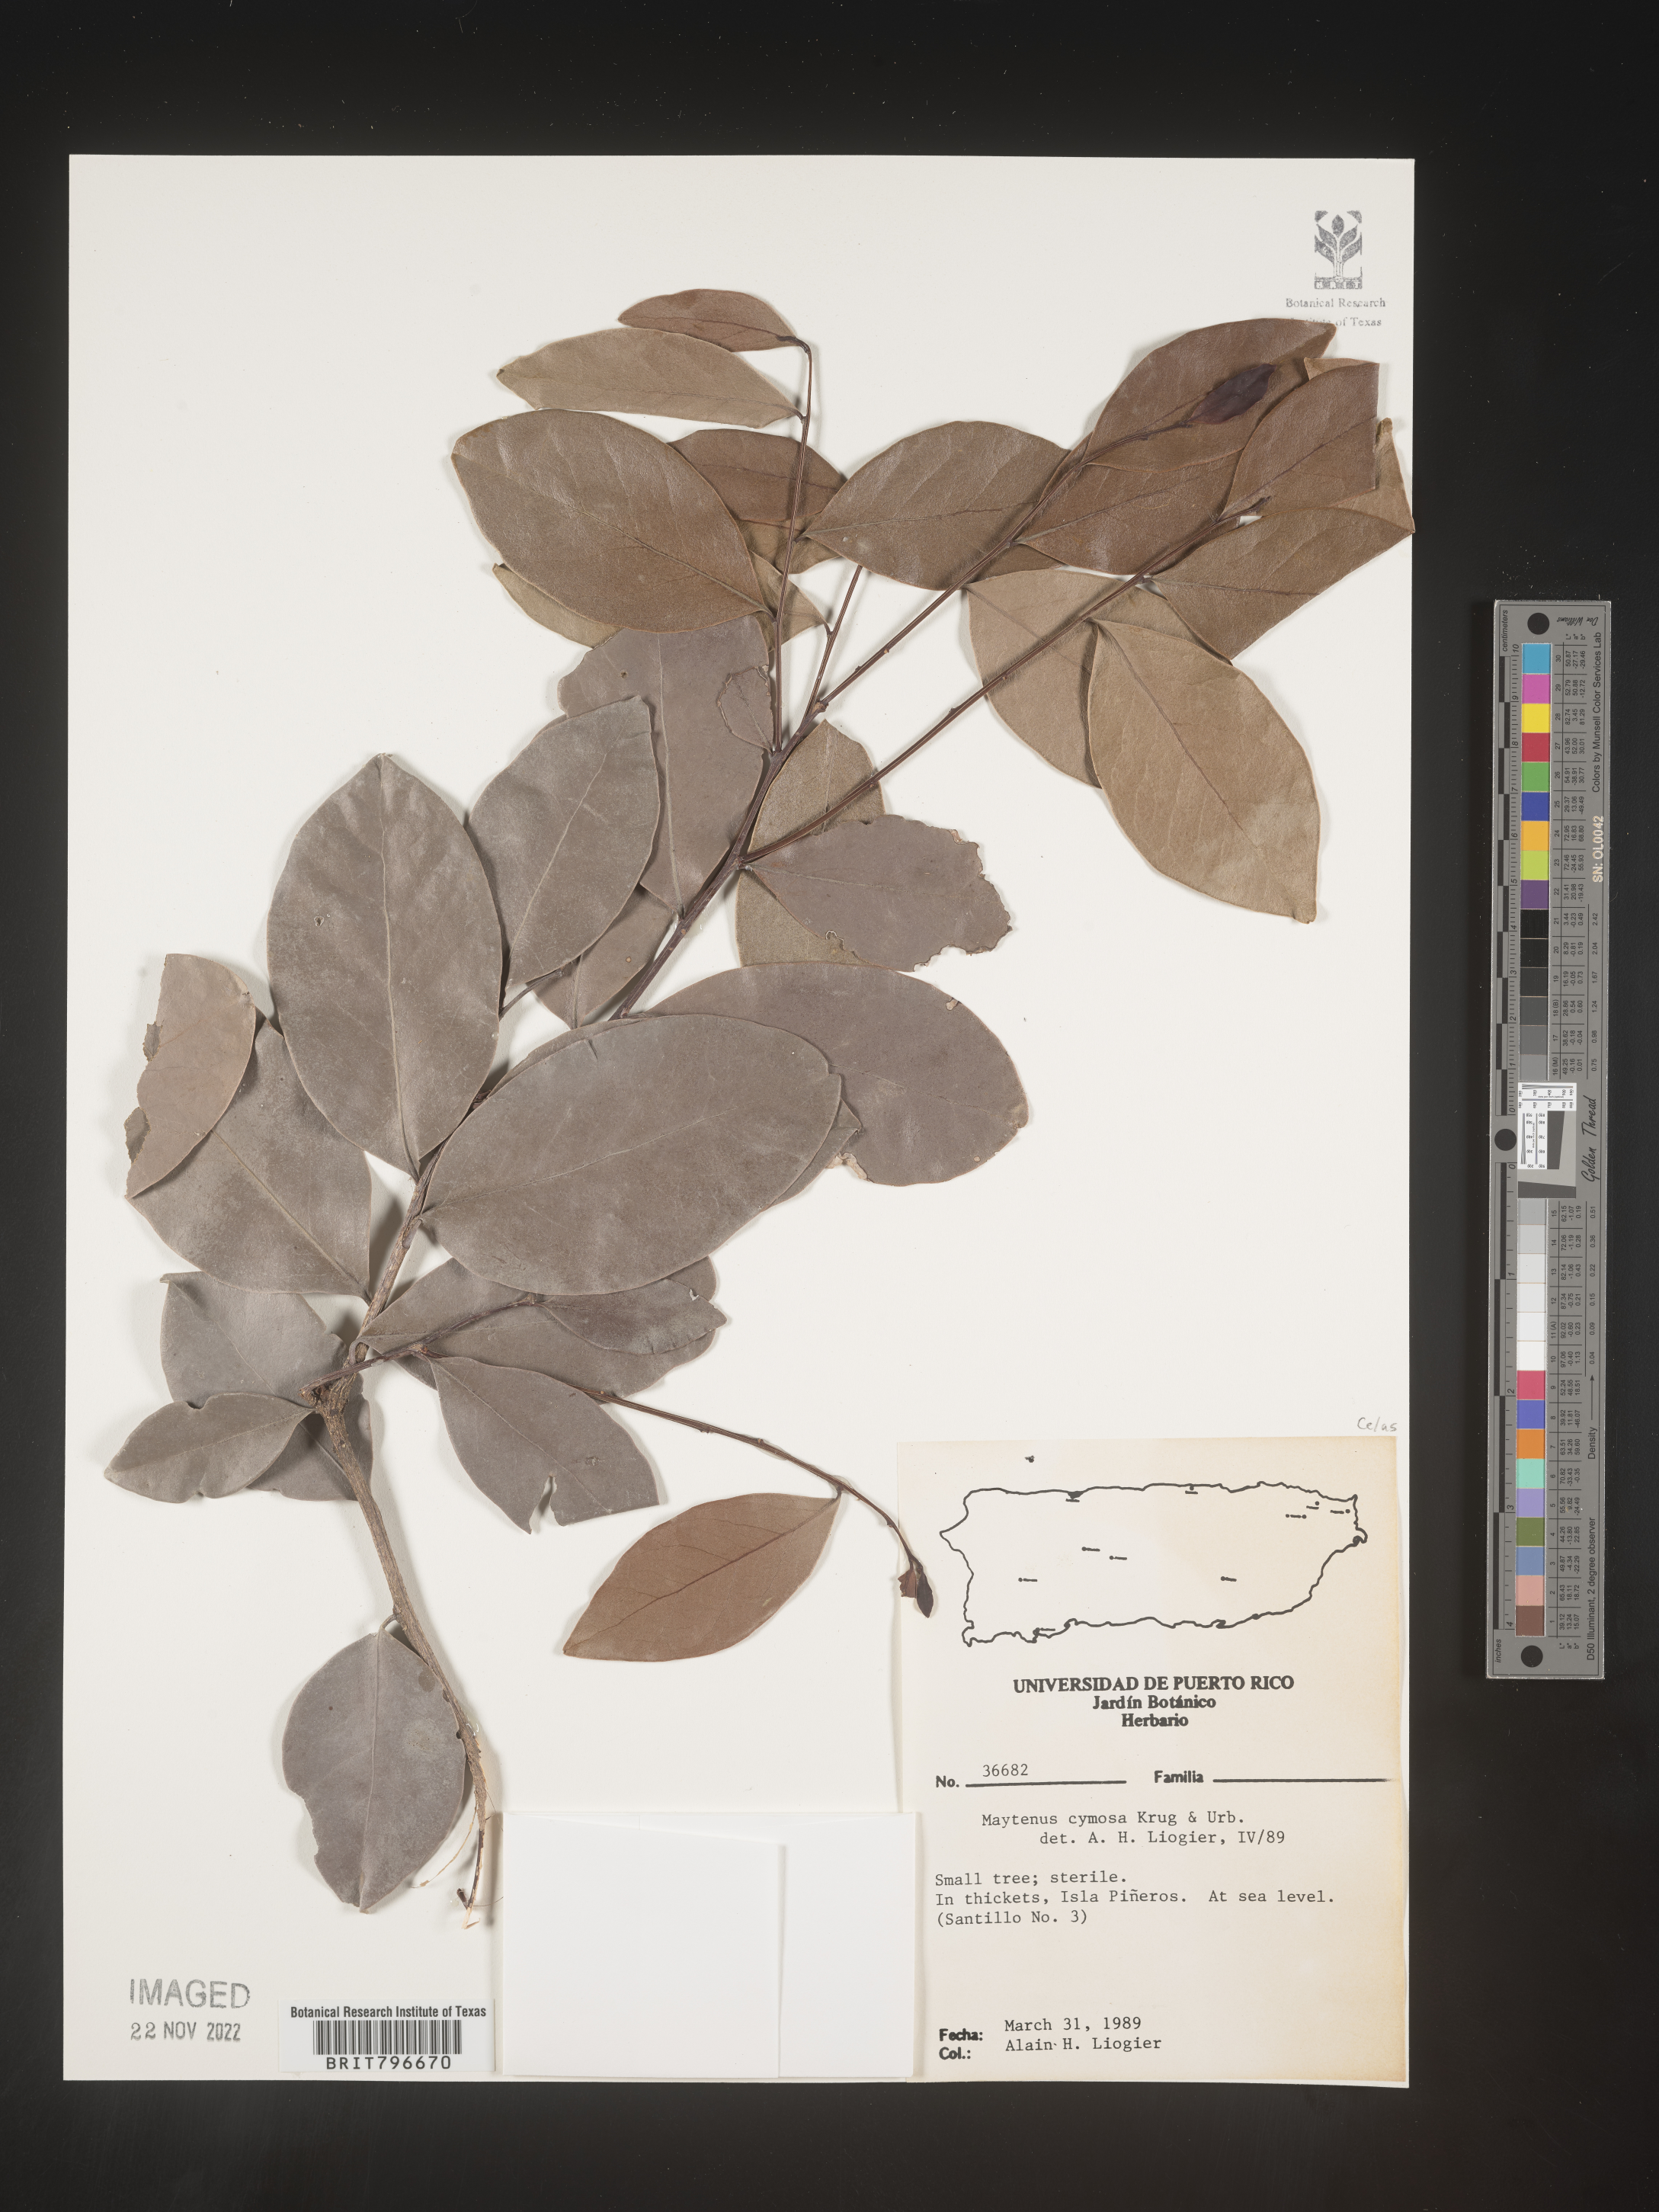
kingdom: Plantae
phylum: Tracheophyta
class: Magnoliopsida
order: Celastrales
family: Celastraceae
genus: Maytenus
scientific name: Maytenus
